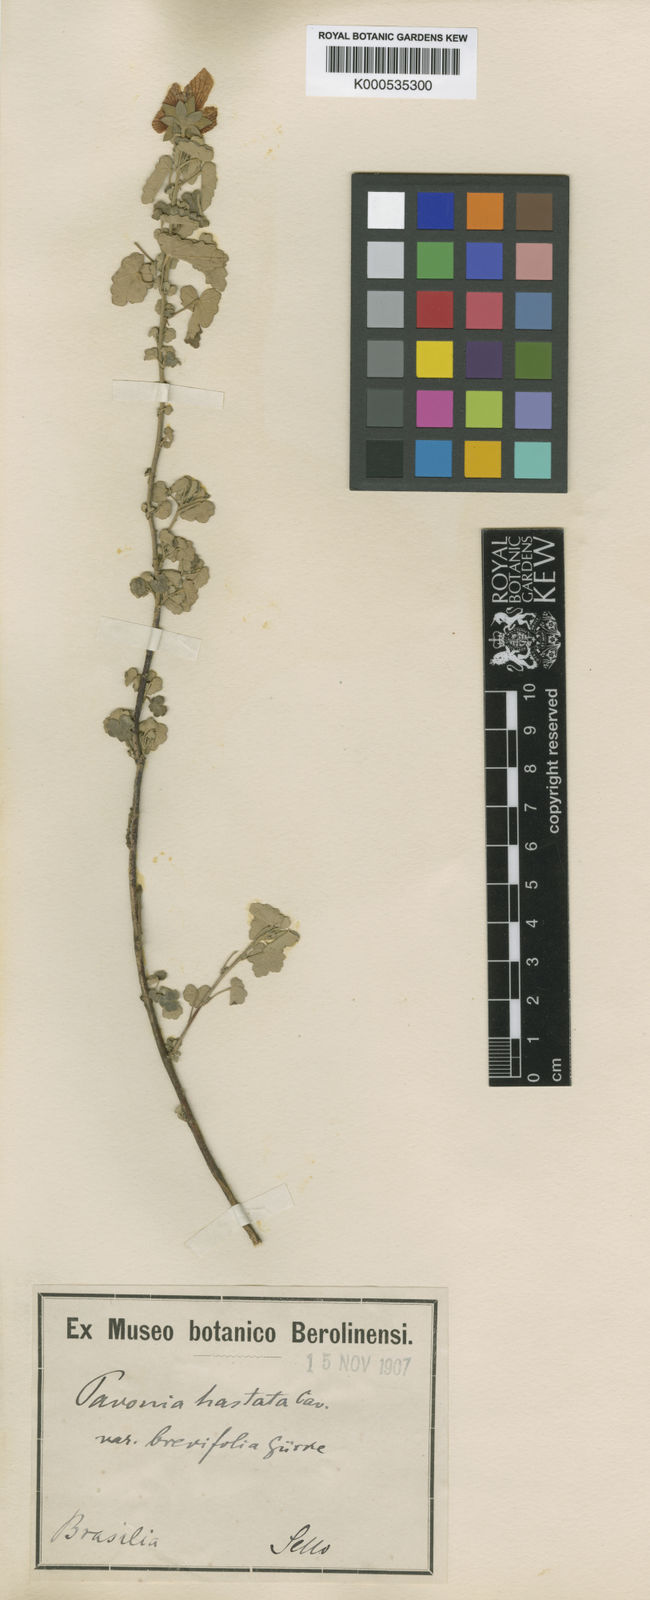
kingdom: Plantae
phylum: Tracheophyta
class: Magnoliopsida
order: Malvales
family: Malvaceae
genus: Pavonia
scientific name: Pavonia hastata
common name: Spearleaf swampmallow
